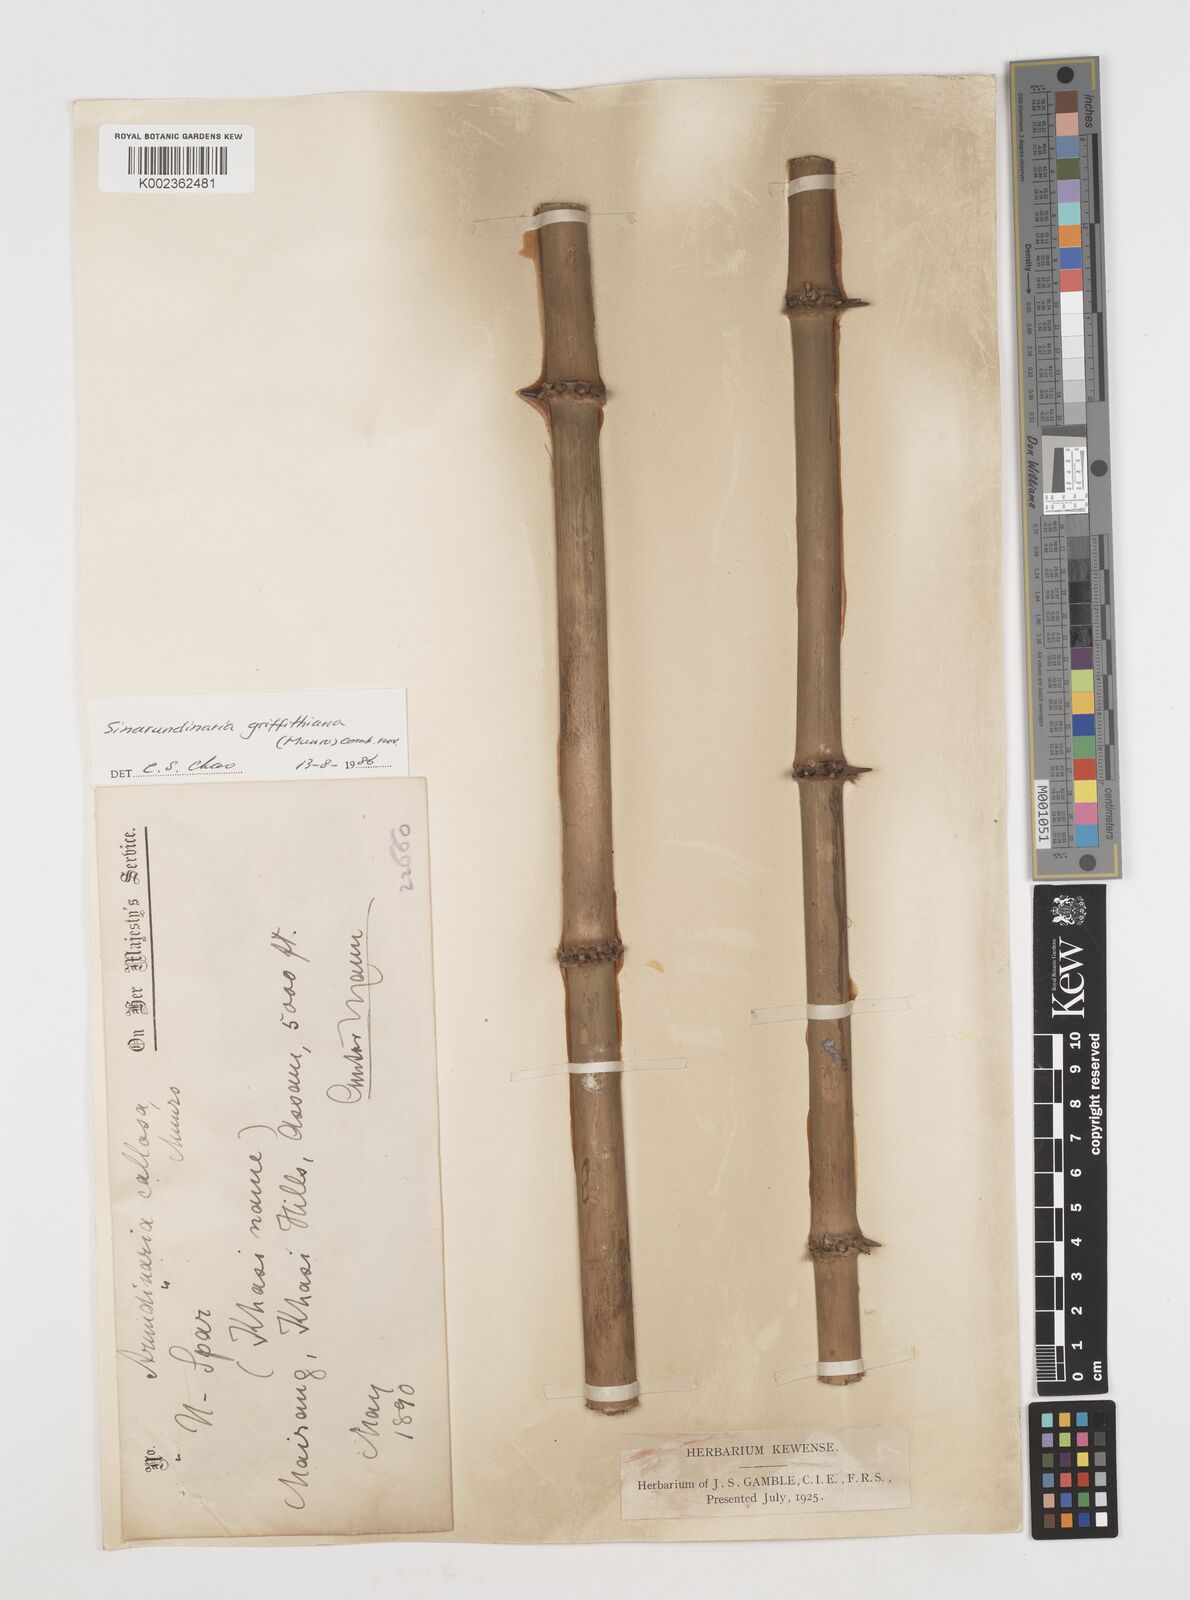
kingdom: Plantae
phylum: Tracheophyta
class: Liliopsida
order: Poales
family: Poaceae
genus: Chimonocalamus
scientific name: Chimonocalamus griffithianus
